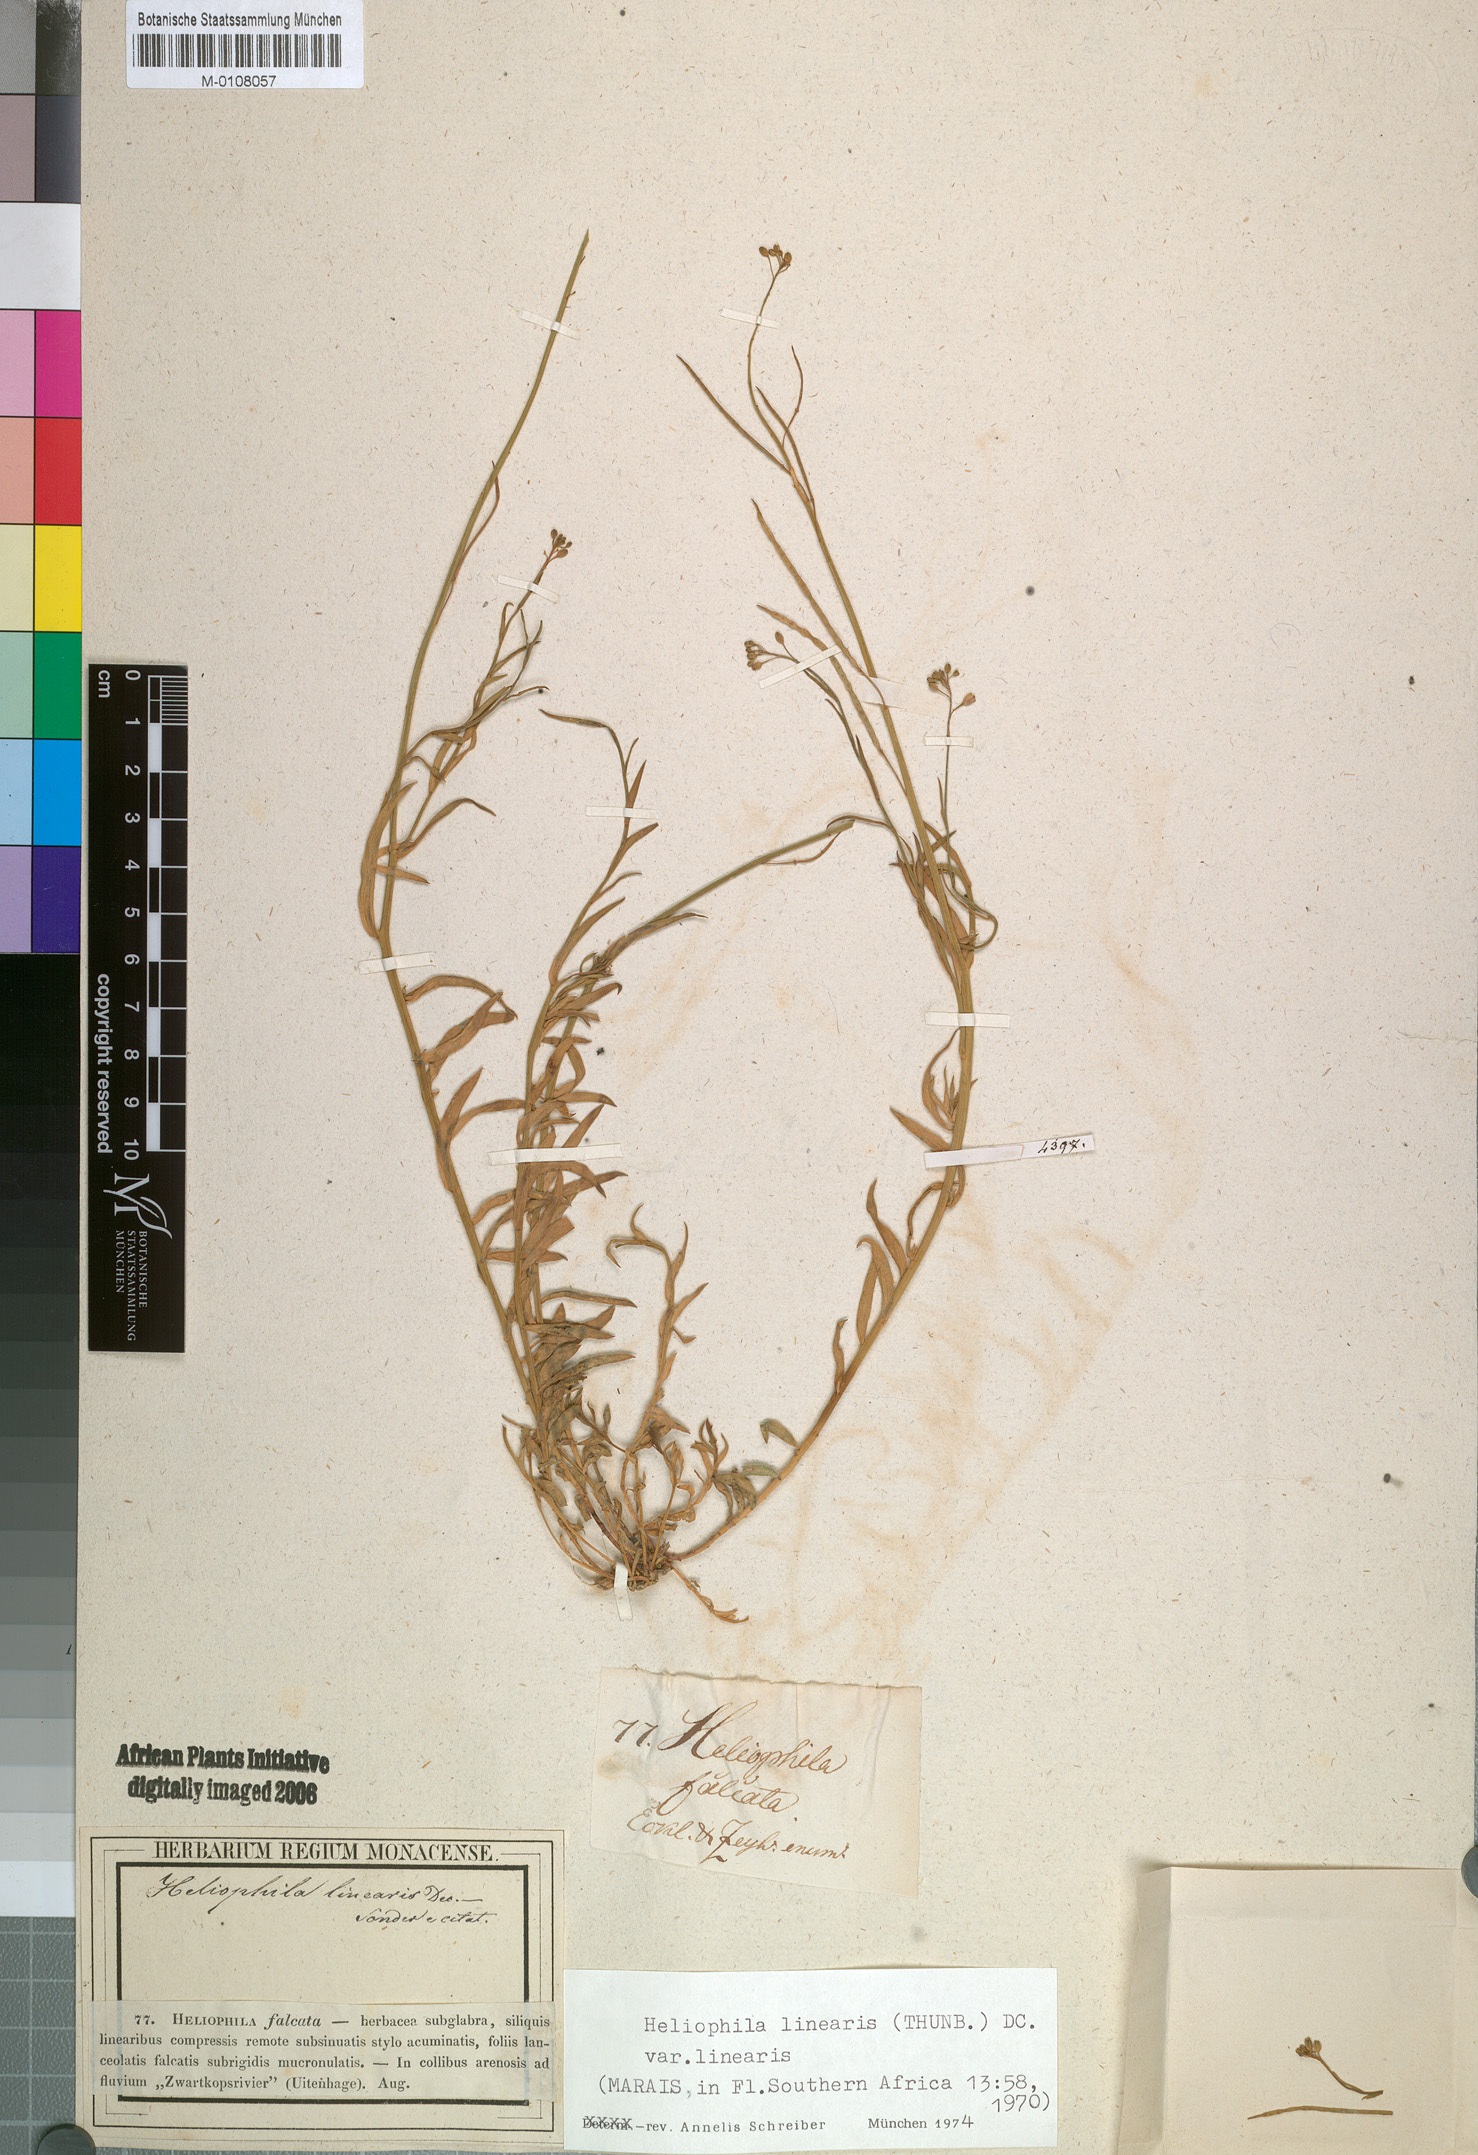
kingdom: Plantae
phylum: Tracheophyta
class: Magnoliopsida
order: Brassicales
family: Brassicaceae
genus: Heliophila
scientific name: Heliophila linearis
